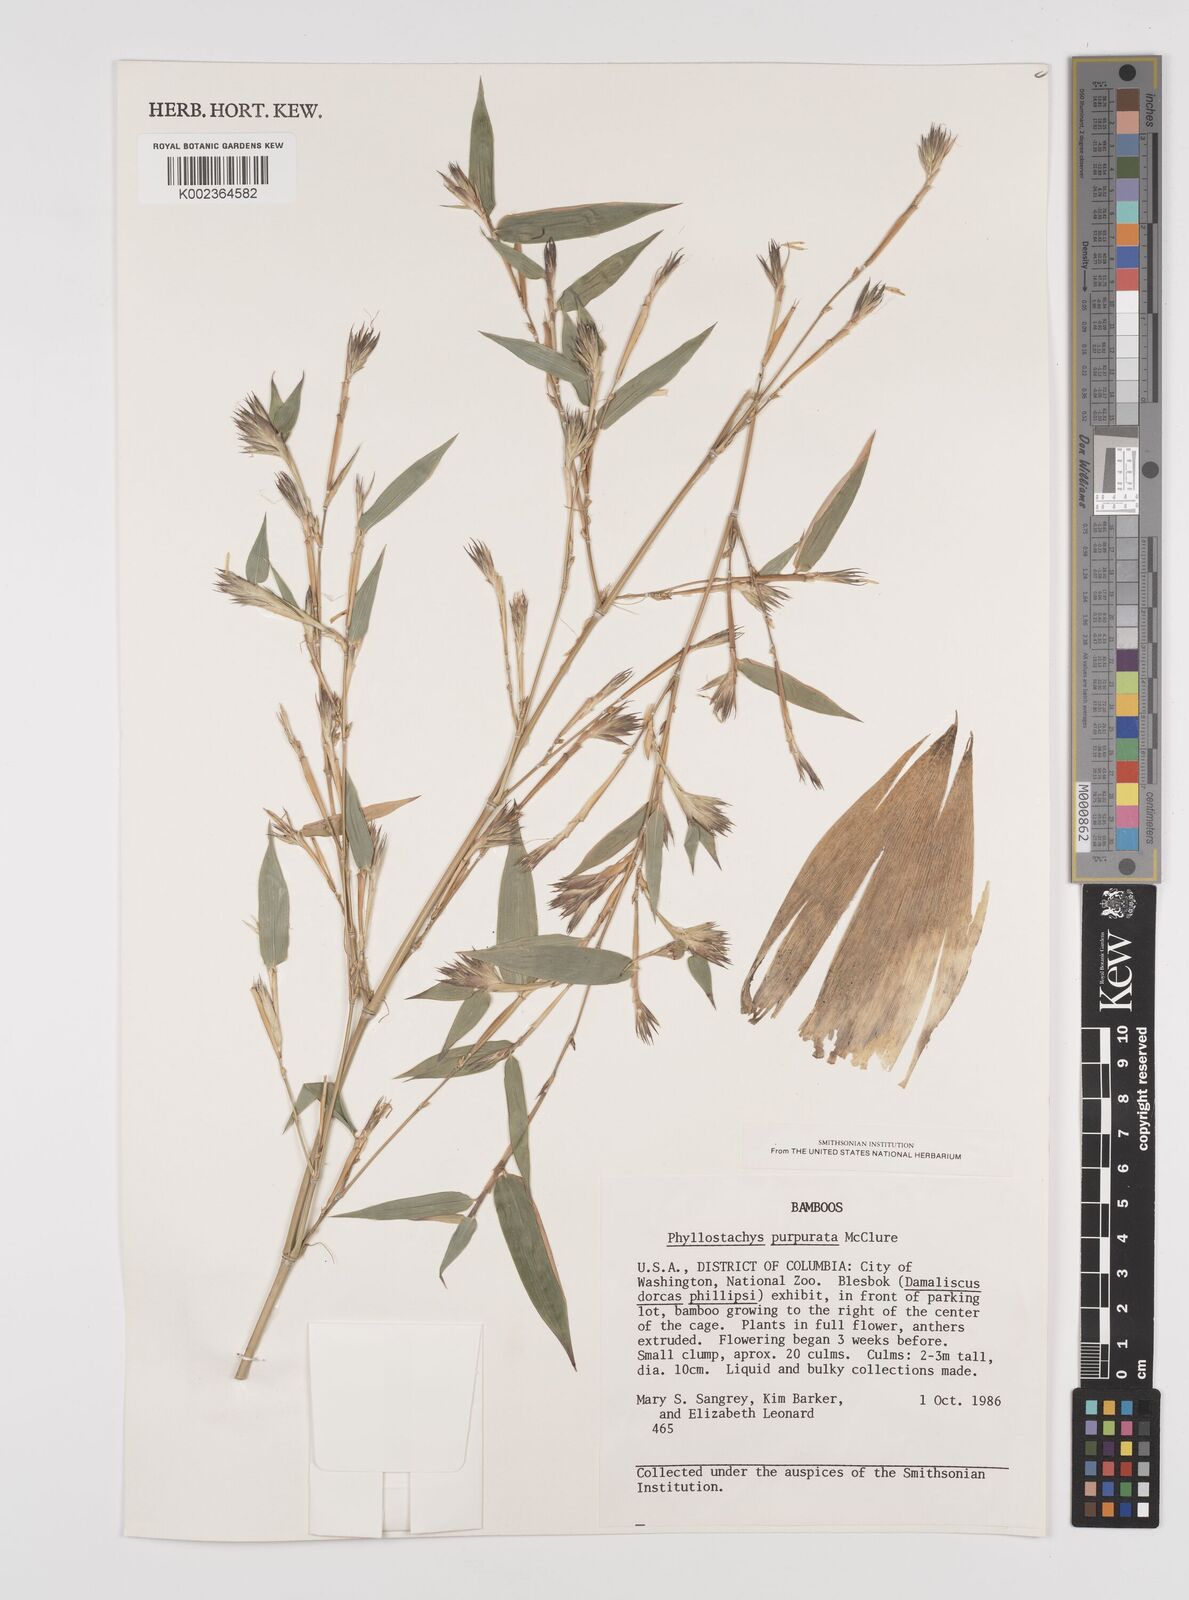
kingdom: Plantae
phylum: Tracheophyta
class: Liliopsida
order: Poales
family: Poaceae
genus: Phyllostachys
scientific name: Phyllostachys heteroclada
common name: Fishscale bamboo
